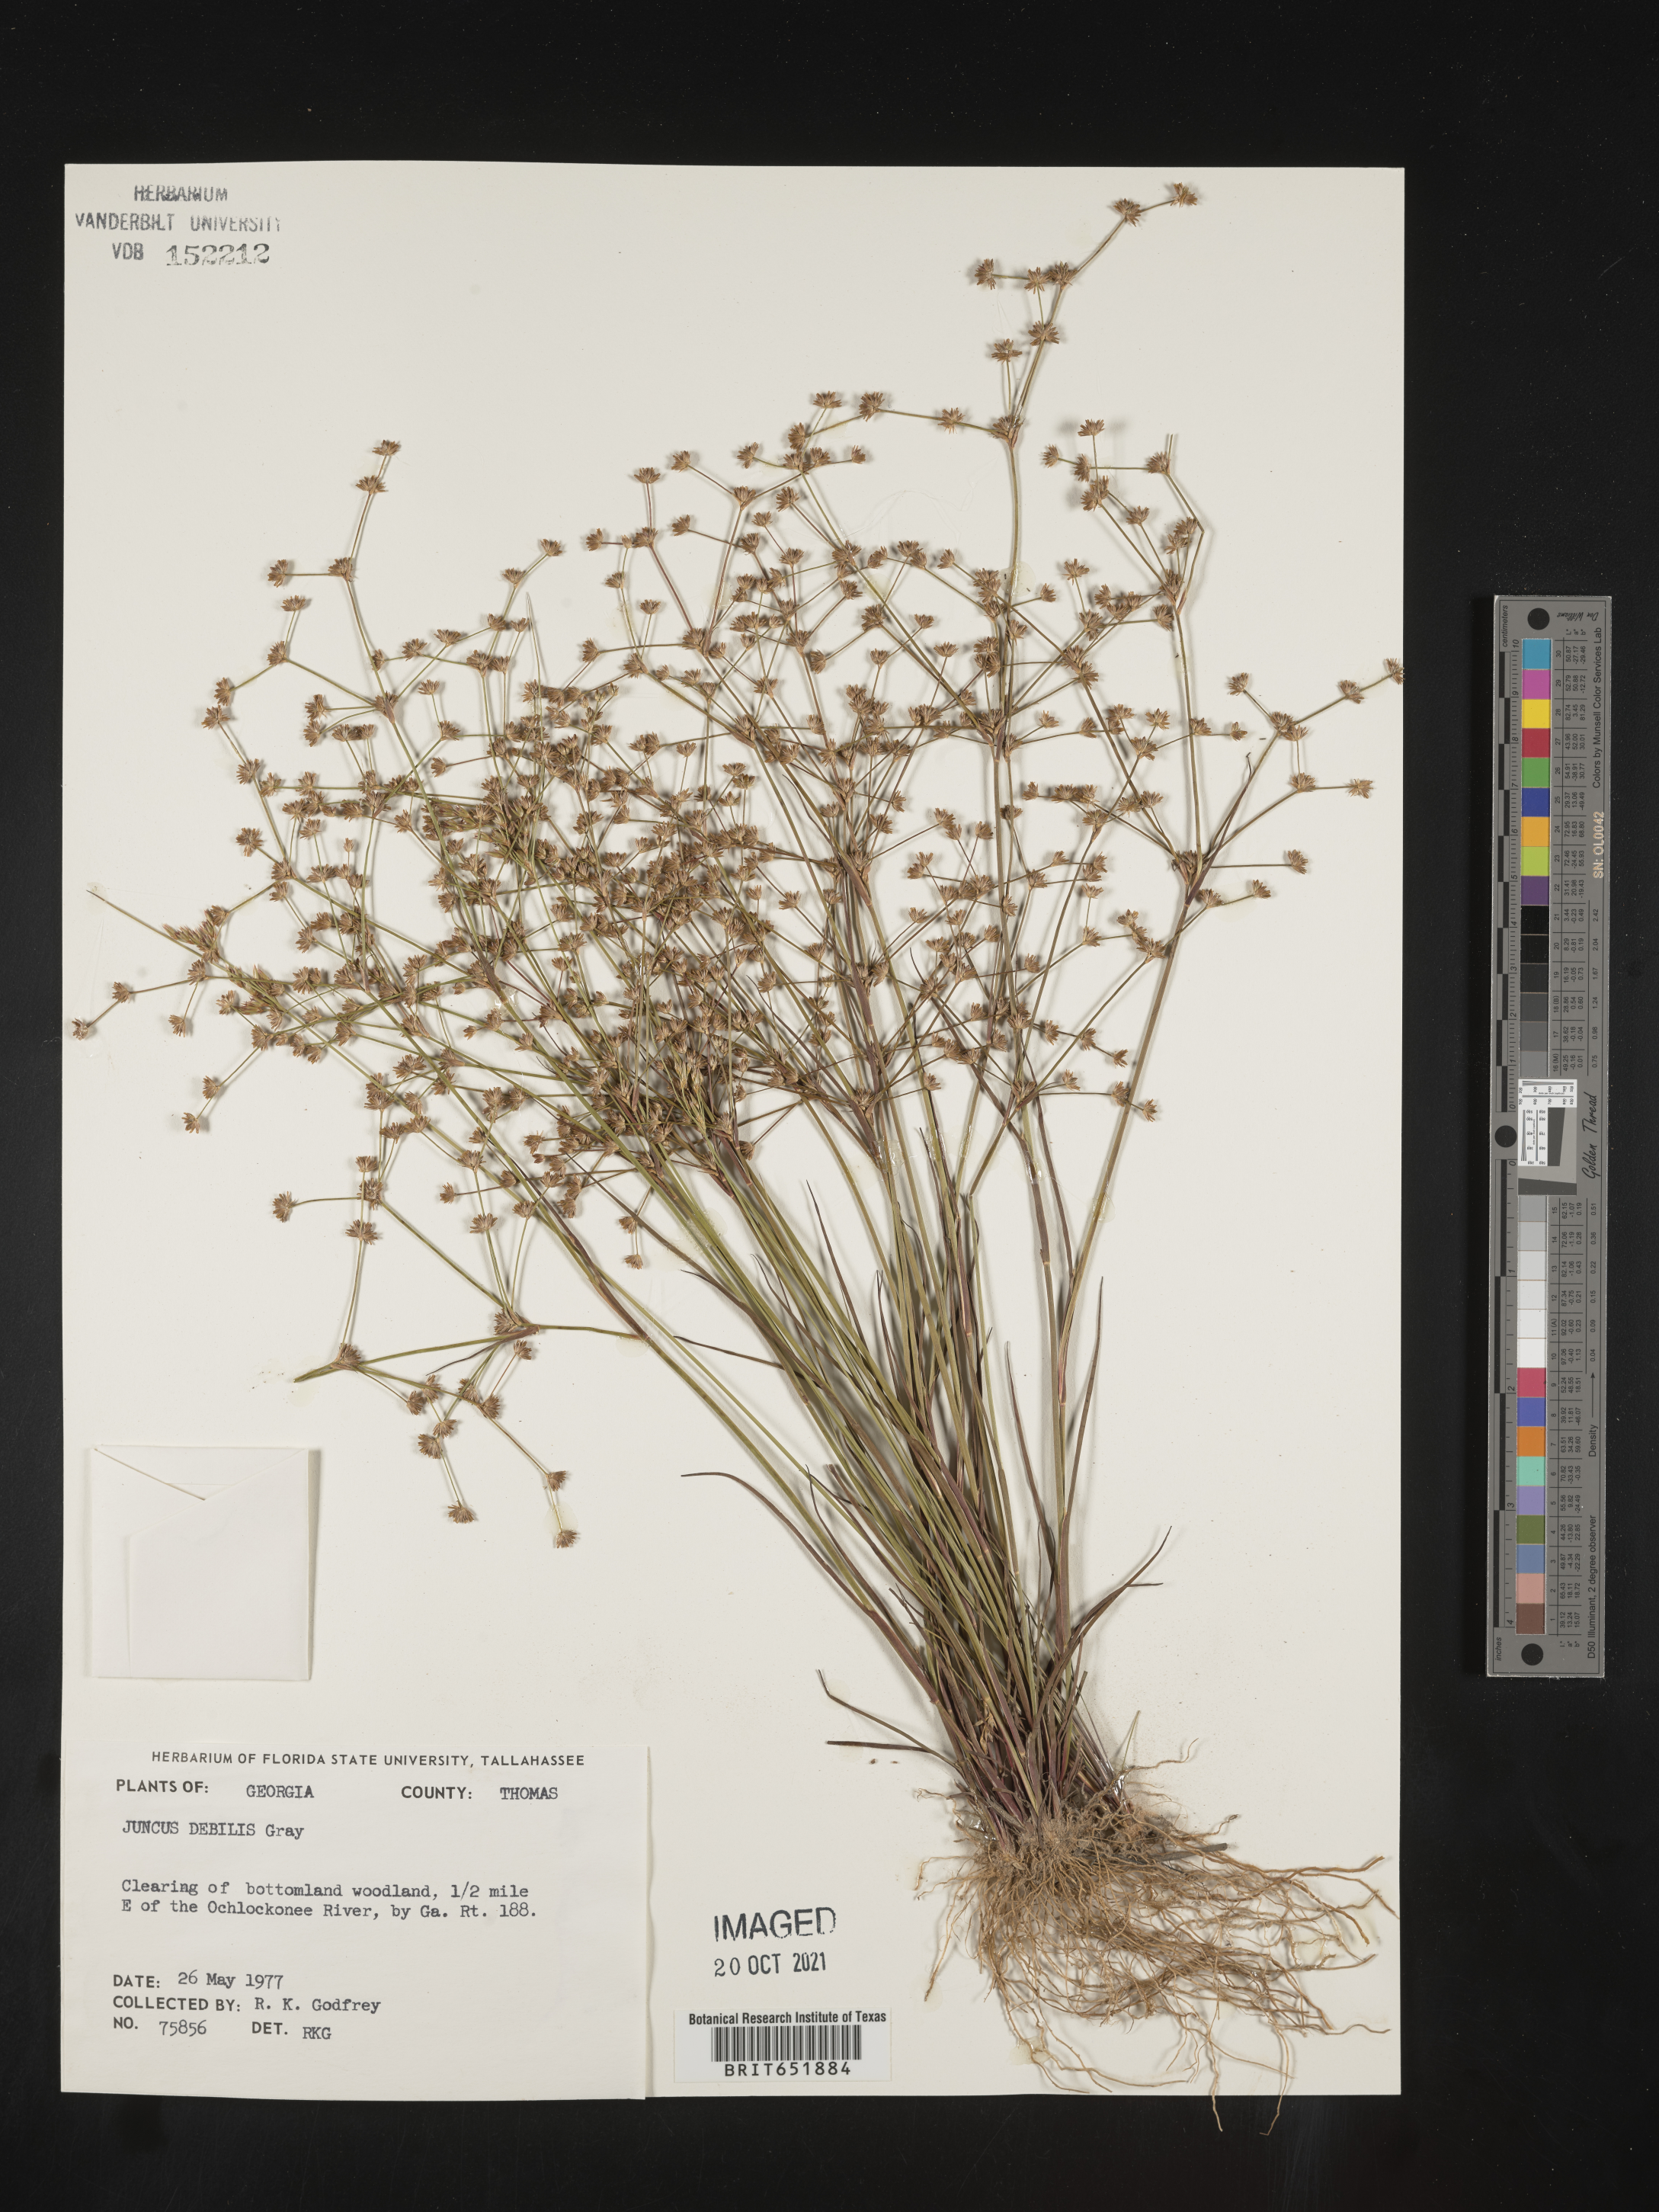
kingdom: Plantae
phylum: Tracheophyta
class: Liliopsida
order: Poales
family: Juncaceae
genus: Juncus
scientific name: Juncus debilis
